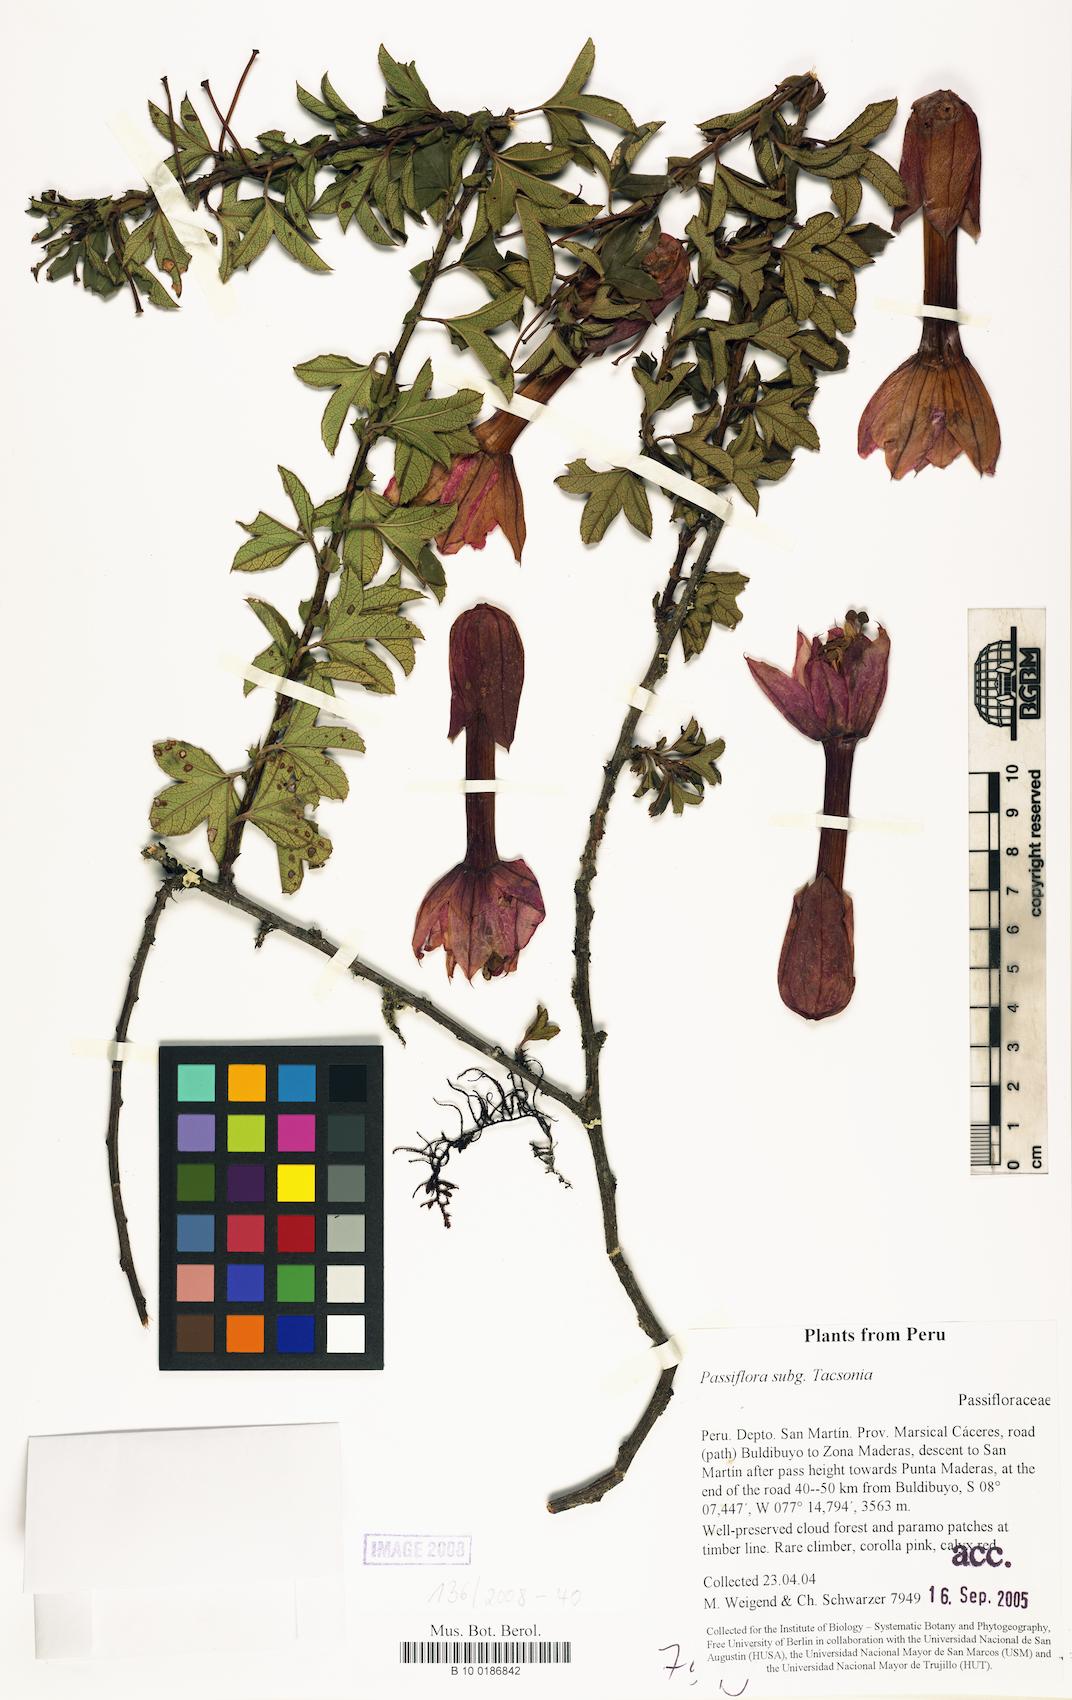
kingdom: Plantae
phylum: Tracheophyta
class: Magnoliopsida
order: Malpighiales
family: Passifloraceae
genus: Passiflora
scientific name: Passiflora
